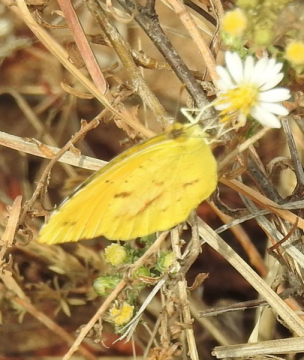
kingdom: Animalia
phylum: Arthropoda
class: Insecta
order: Lepidoptera
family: Pieridae
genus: Abaeis
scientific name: Abaeis nicippe
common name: Sleepy Orange
